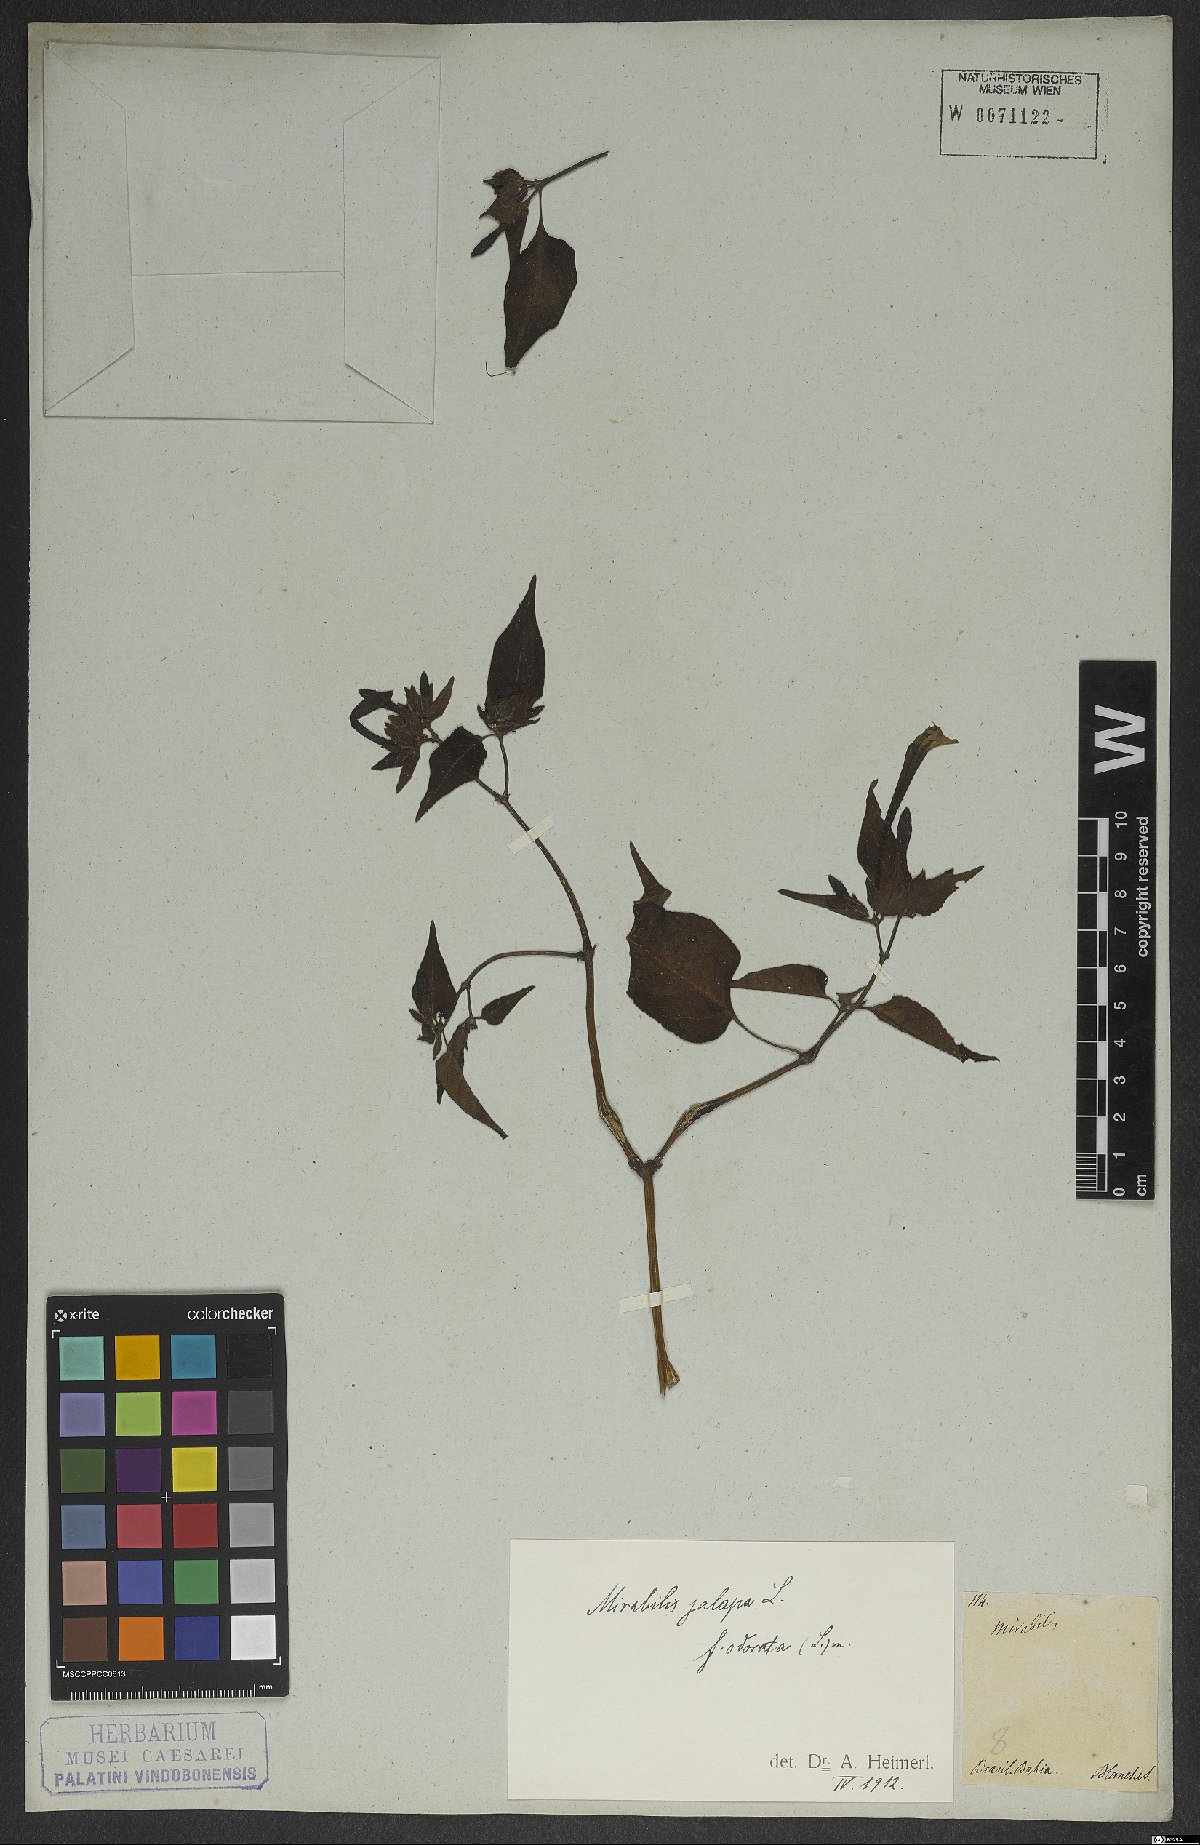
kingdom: Plantae
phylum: Tracheophyta
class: Magnoliopsida
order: Caryophyllales
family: Nyctaginaceae
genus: Mirabilis
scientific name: Mirabilis jalapa
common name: Marvel-of-peru
